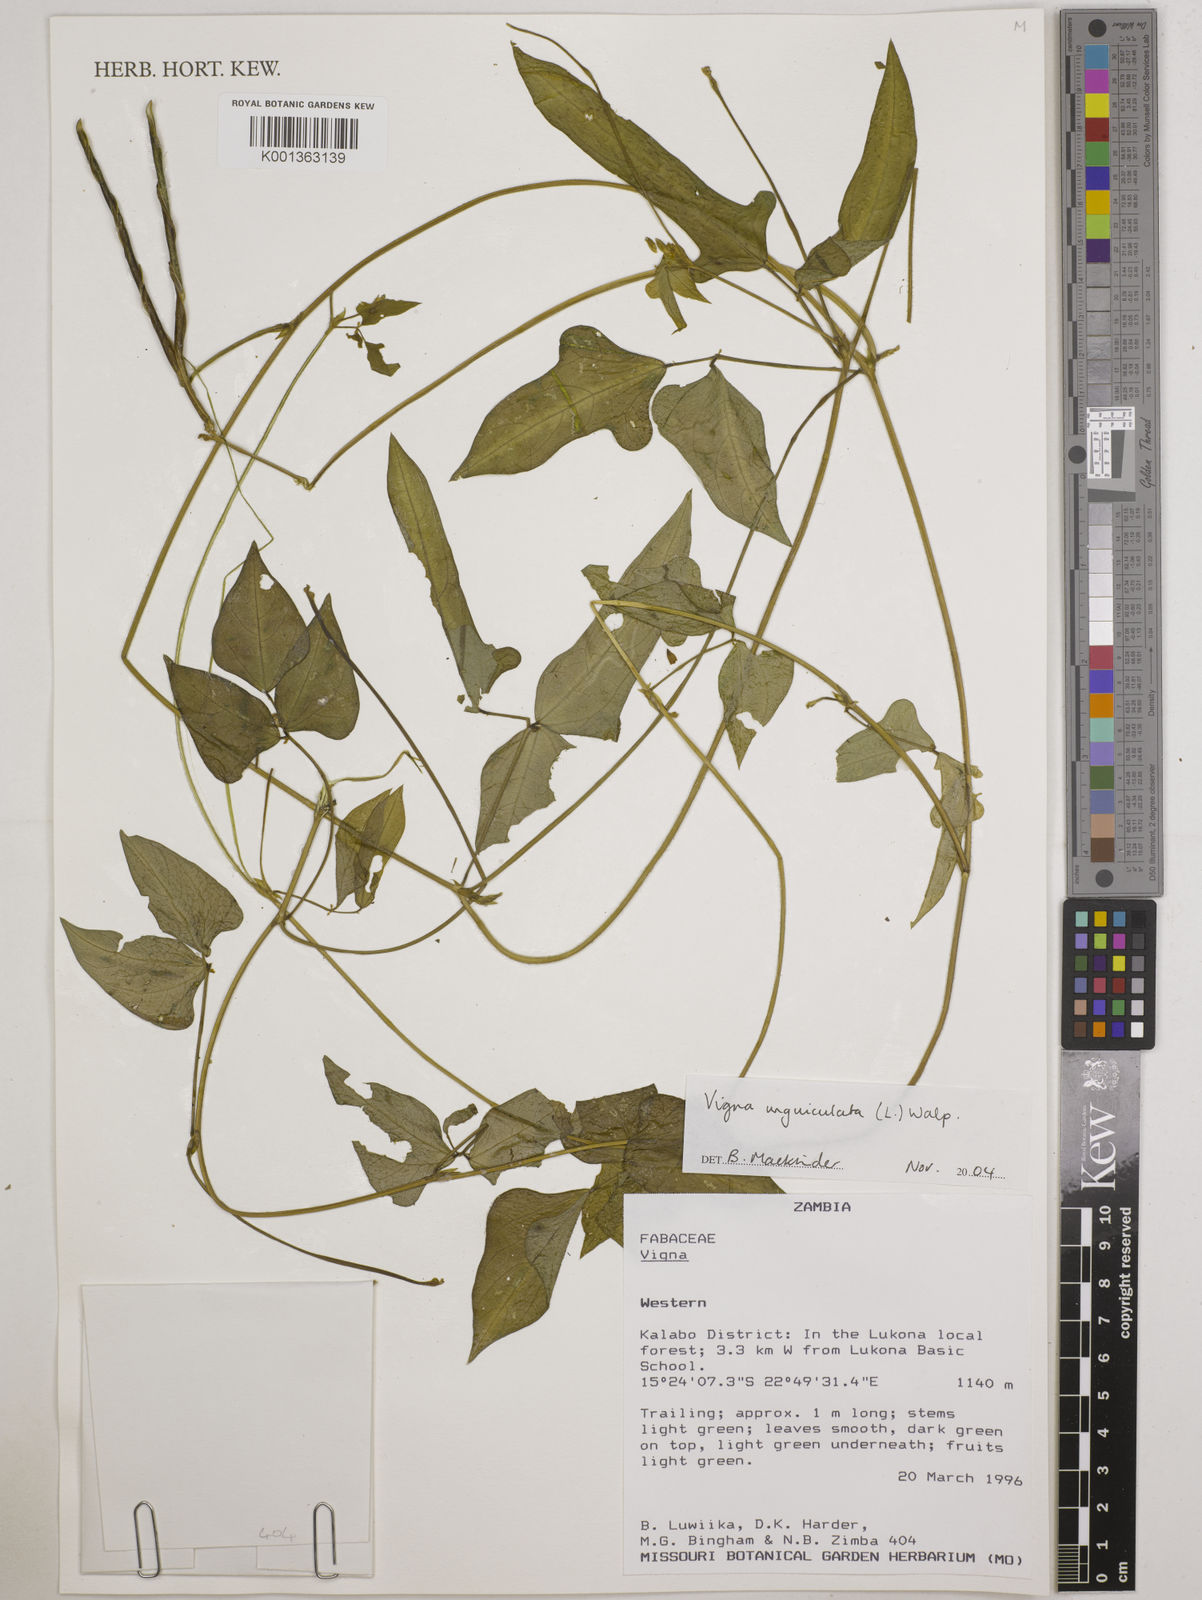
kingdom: Plantae
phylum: Tracheophyta
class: Magnoliopsida
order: Fabales
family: Fabaceae
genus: Vigna
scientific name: Vigna unguiculata
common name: Cowpea
